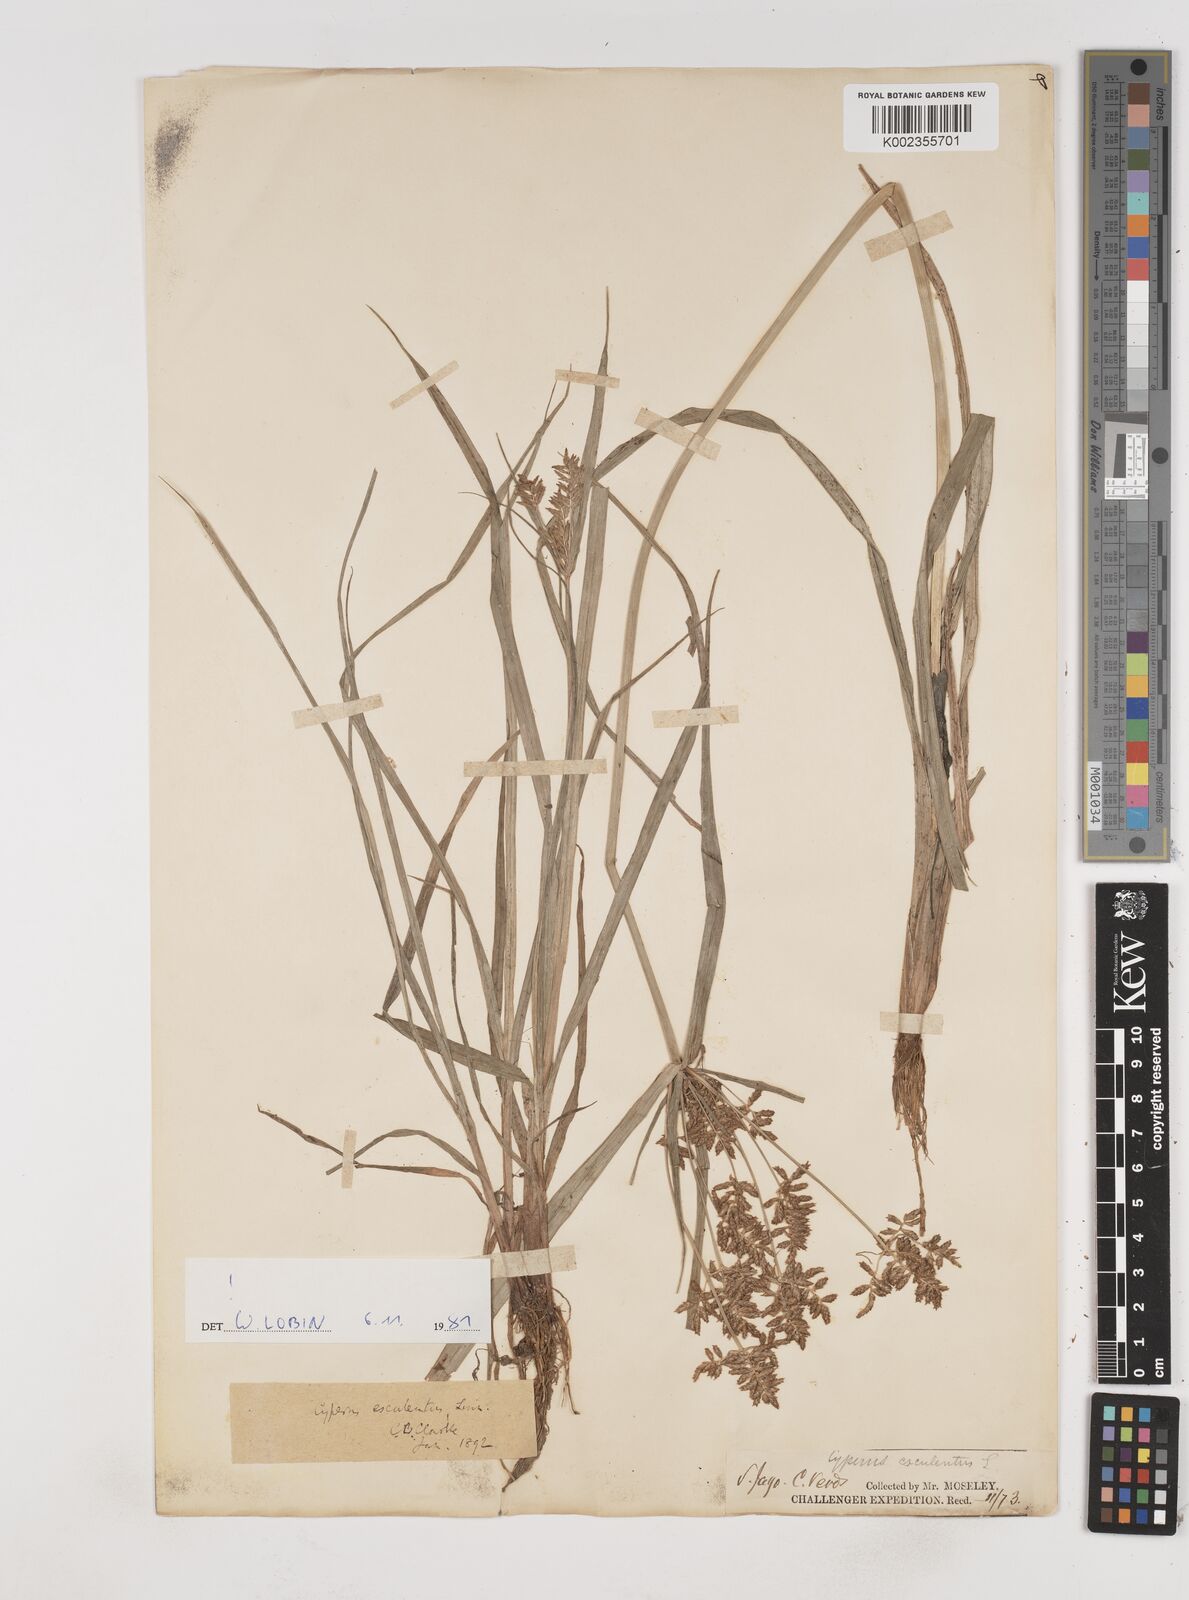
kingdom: Plantae
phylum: Tracheophyta
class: Liliopsida
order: Poales
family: Cyperaceae
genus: Cyperus
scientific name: Cyperus esculentus
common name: Yellow nutsedge
